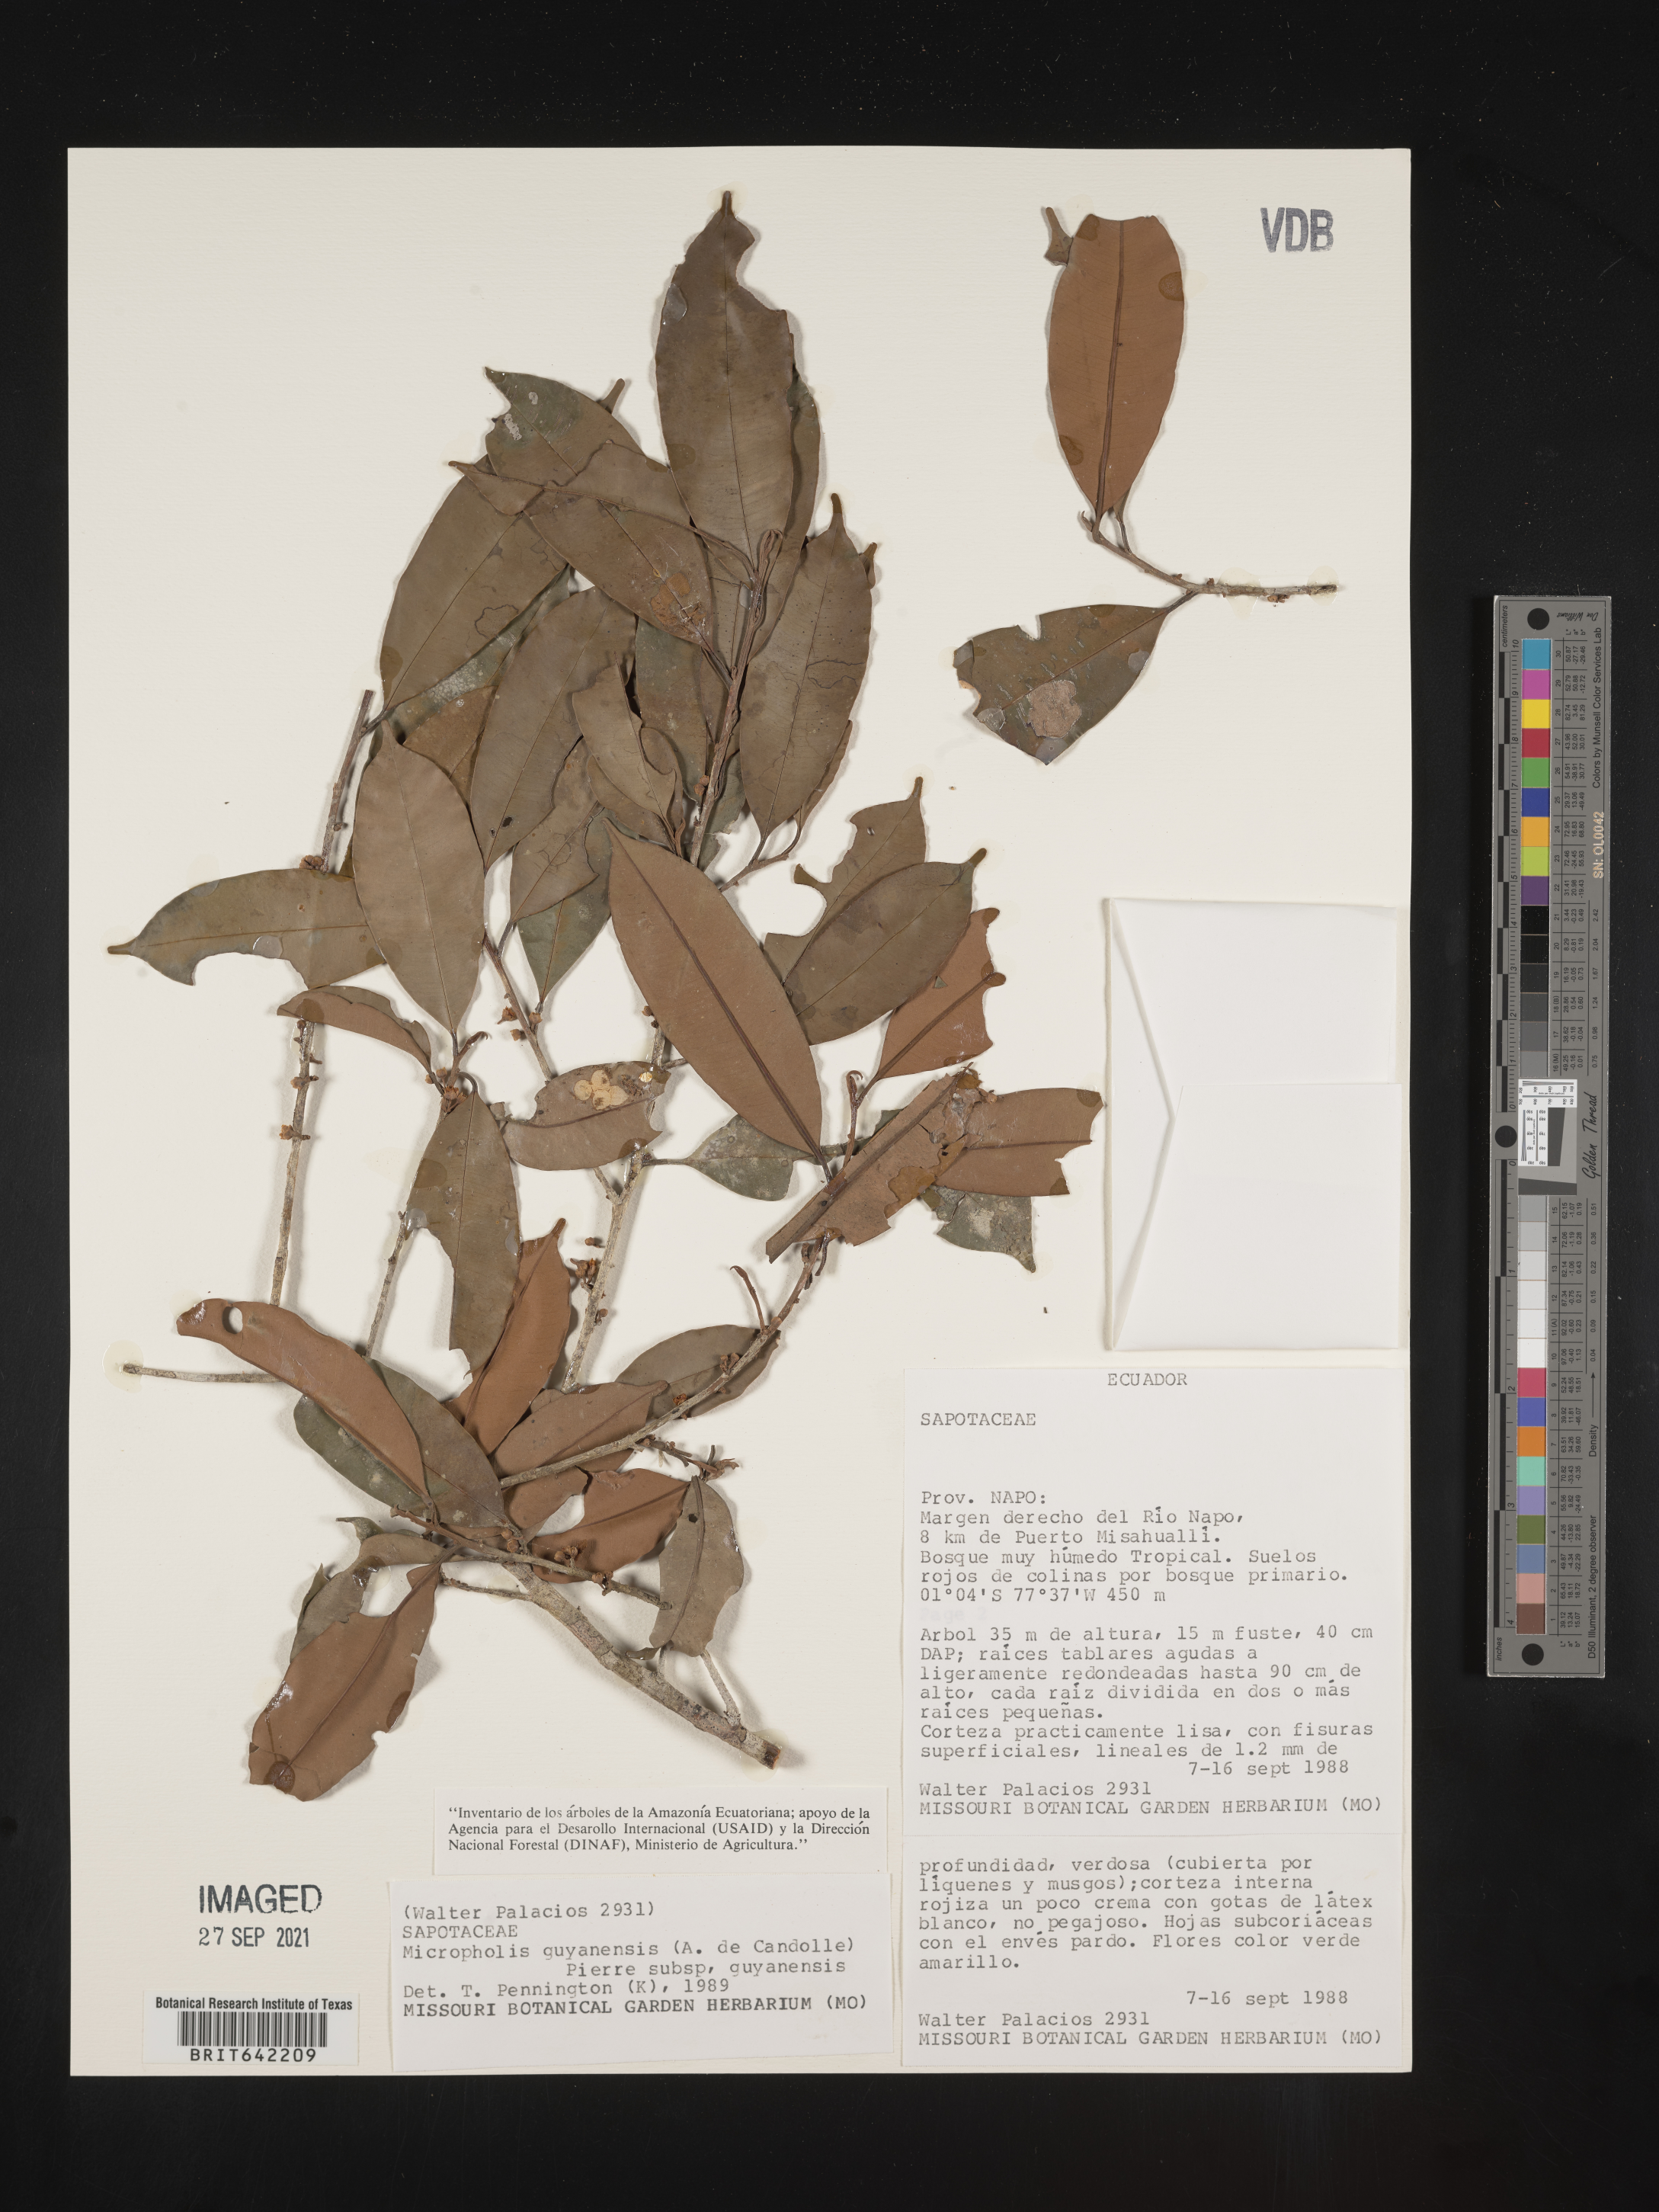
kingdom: Plantae
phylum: Tracheophyta
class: Magnoliopsida
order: Ericales
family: Sapotaceae
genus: Micropholis
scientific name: Micropholis
